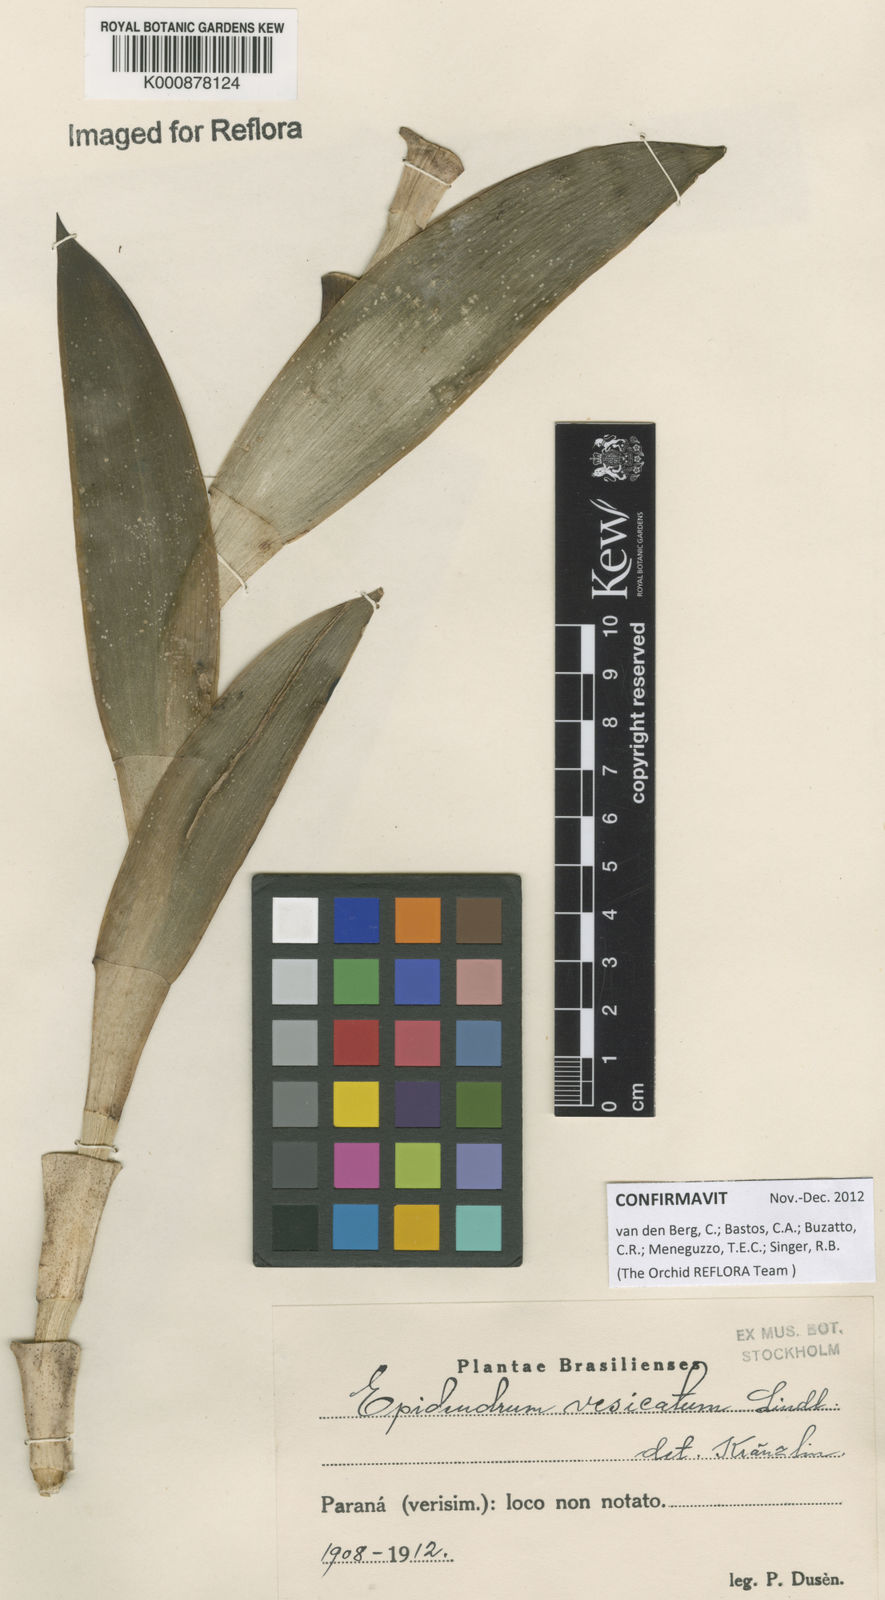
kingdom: Plantae
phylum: Tracheophyta
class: Liliopsida
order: Asparagales
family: Orchidaceae
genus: Epidendrum
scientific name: Epidendrum vesicatum
